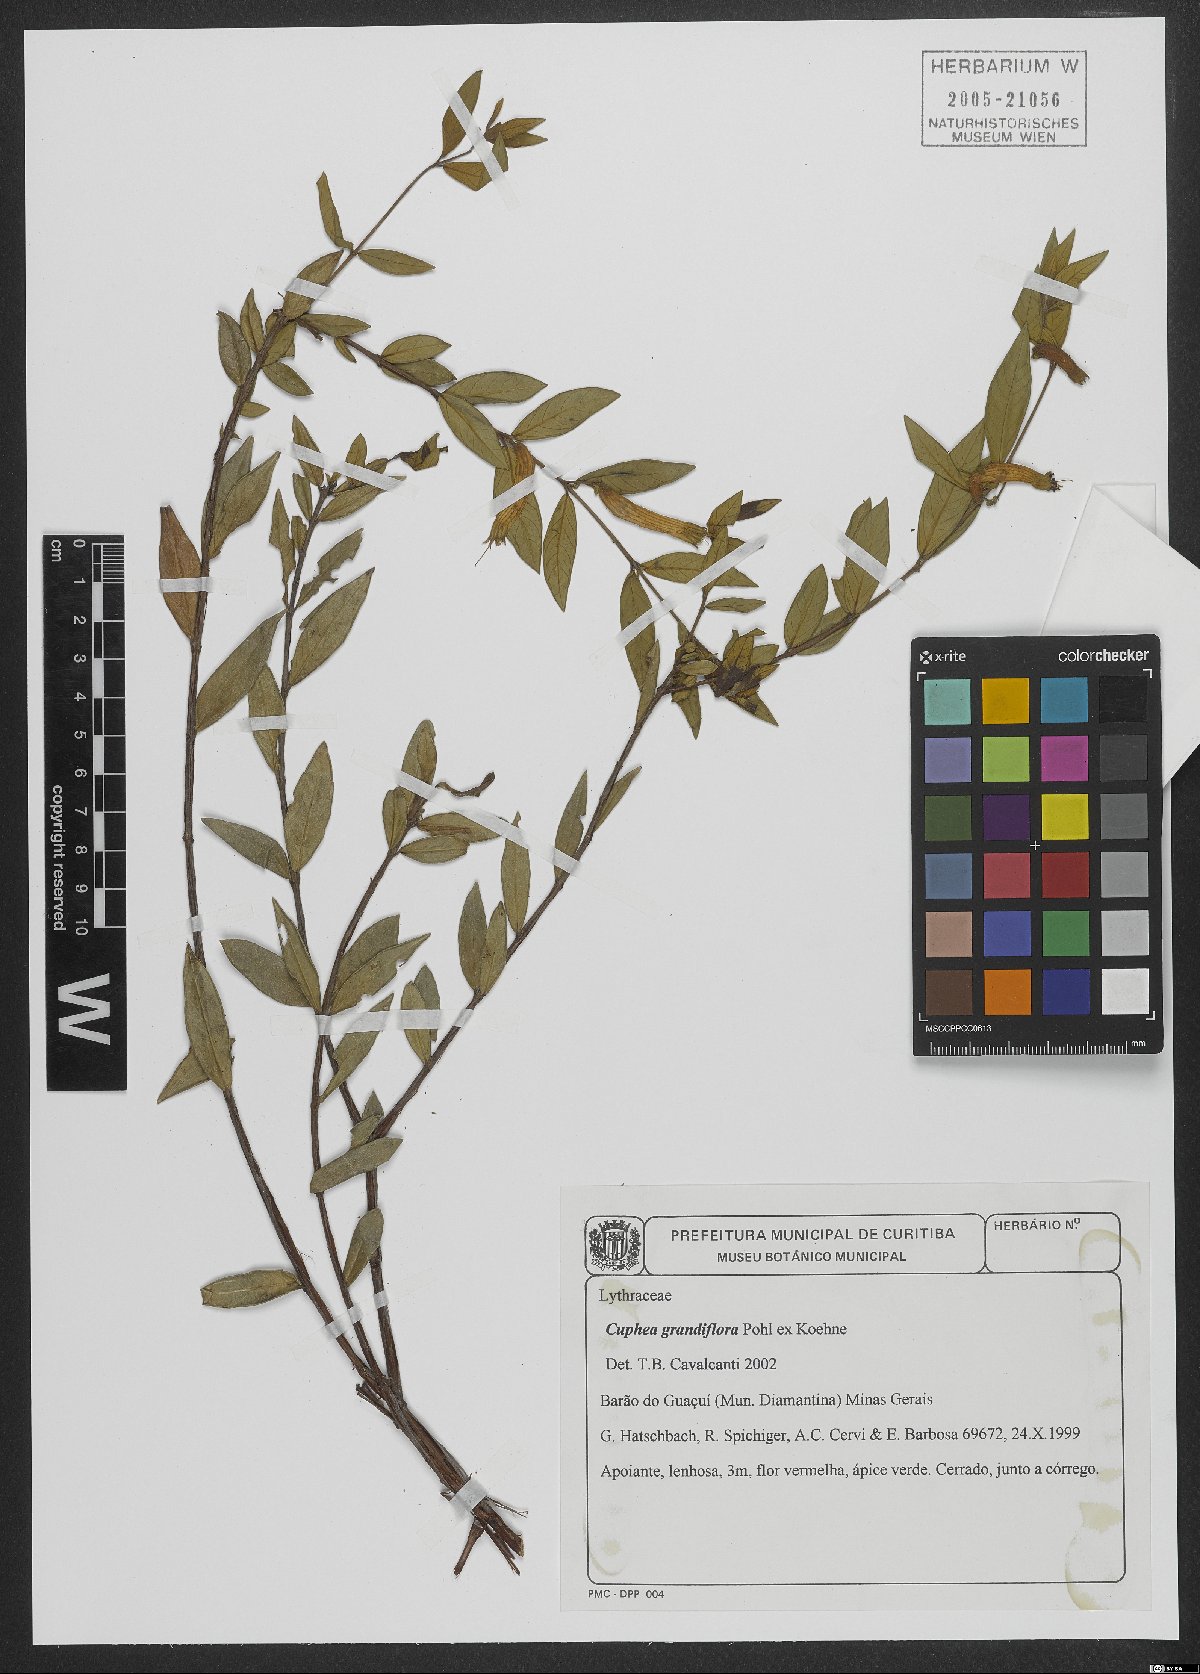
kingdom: Plantae
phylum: Tracheophyta
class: Magnoliopsida
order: Myrtales
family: Lythraceae
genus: Cuphea
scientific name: Cuphea appendiculata
